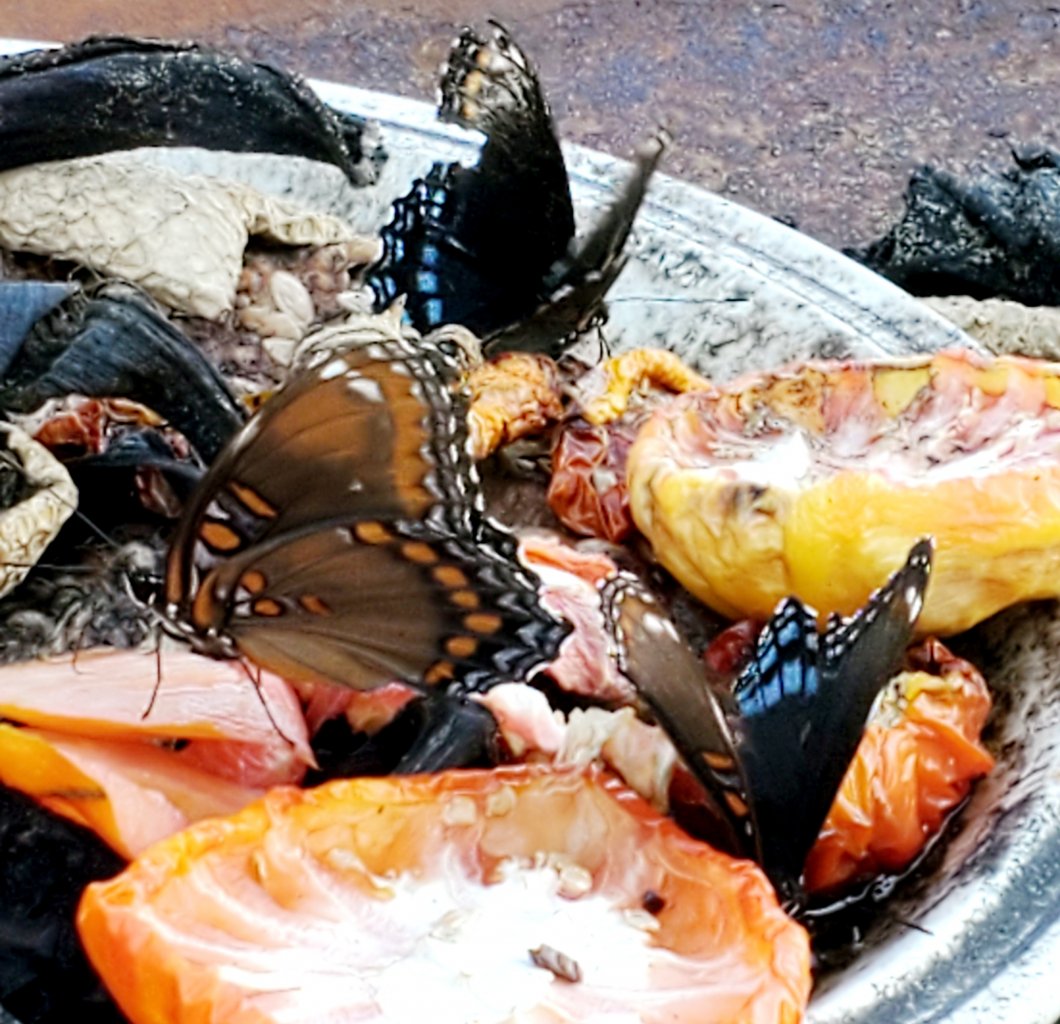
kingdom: Animalia
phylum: Arthropoda
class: Insecta
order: Lepidoptera
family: Nymphalidae
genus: Limenitis
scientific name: Limenitis astyanax
